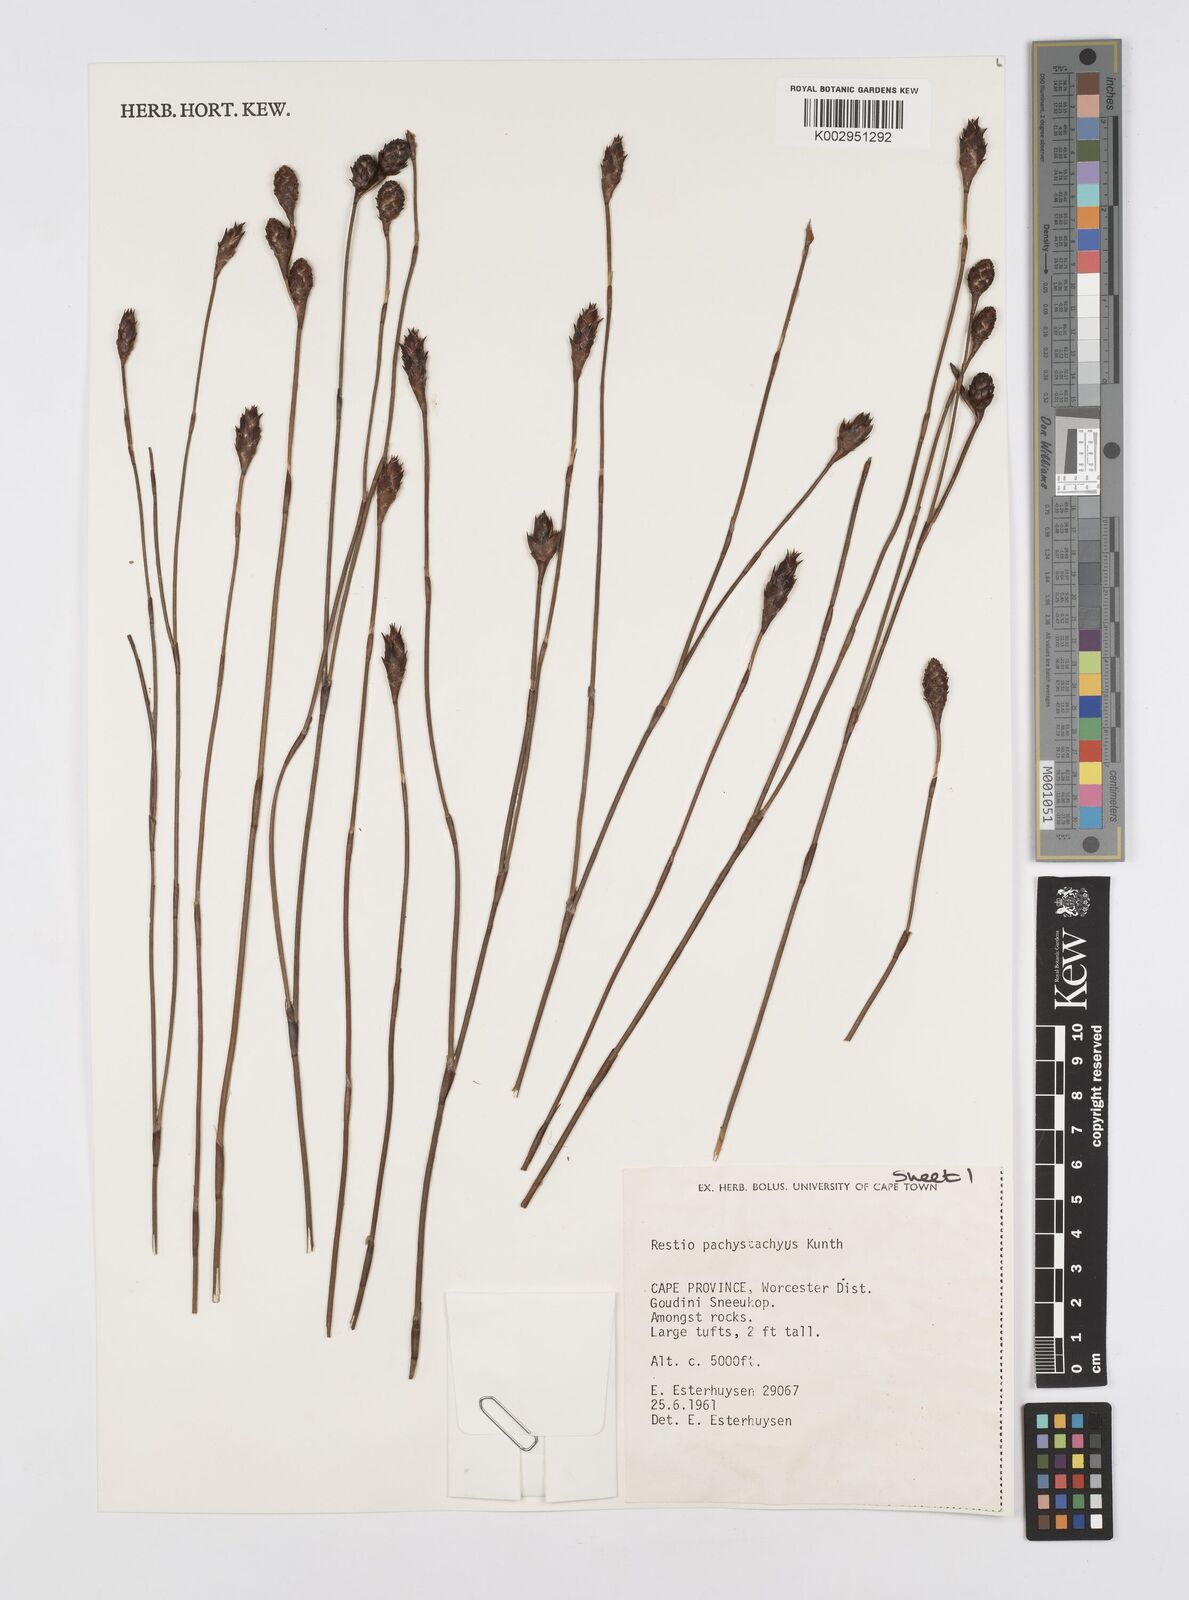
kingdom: Plantae
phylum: Tracheophyta
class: Liliopsida
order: Poales
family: Restionaceae
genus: Restio
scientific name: Restio pachystachyus
